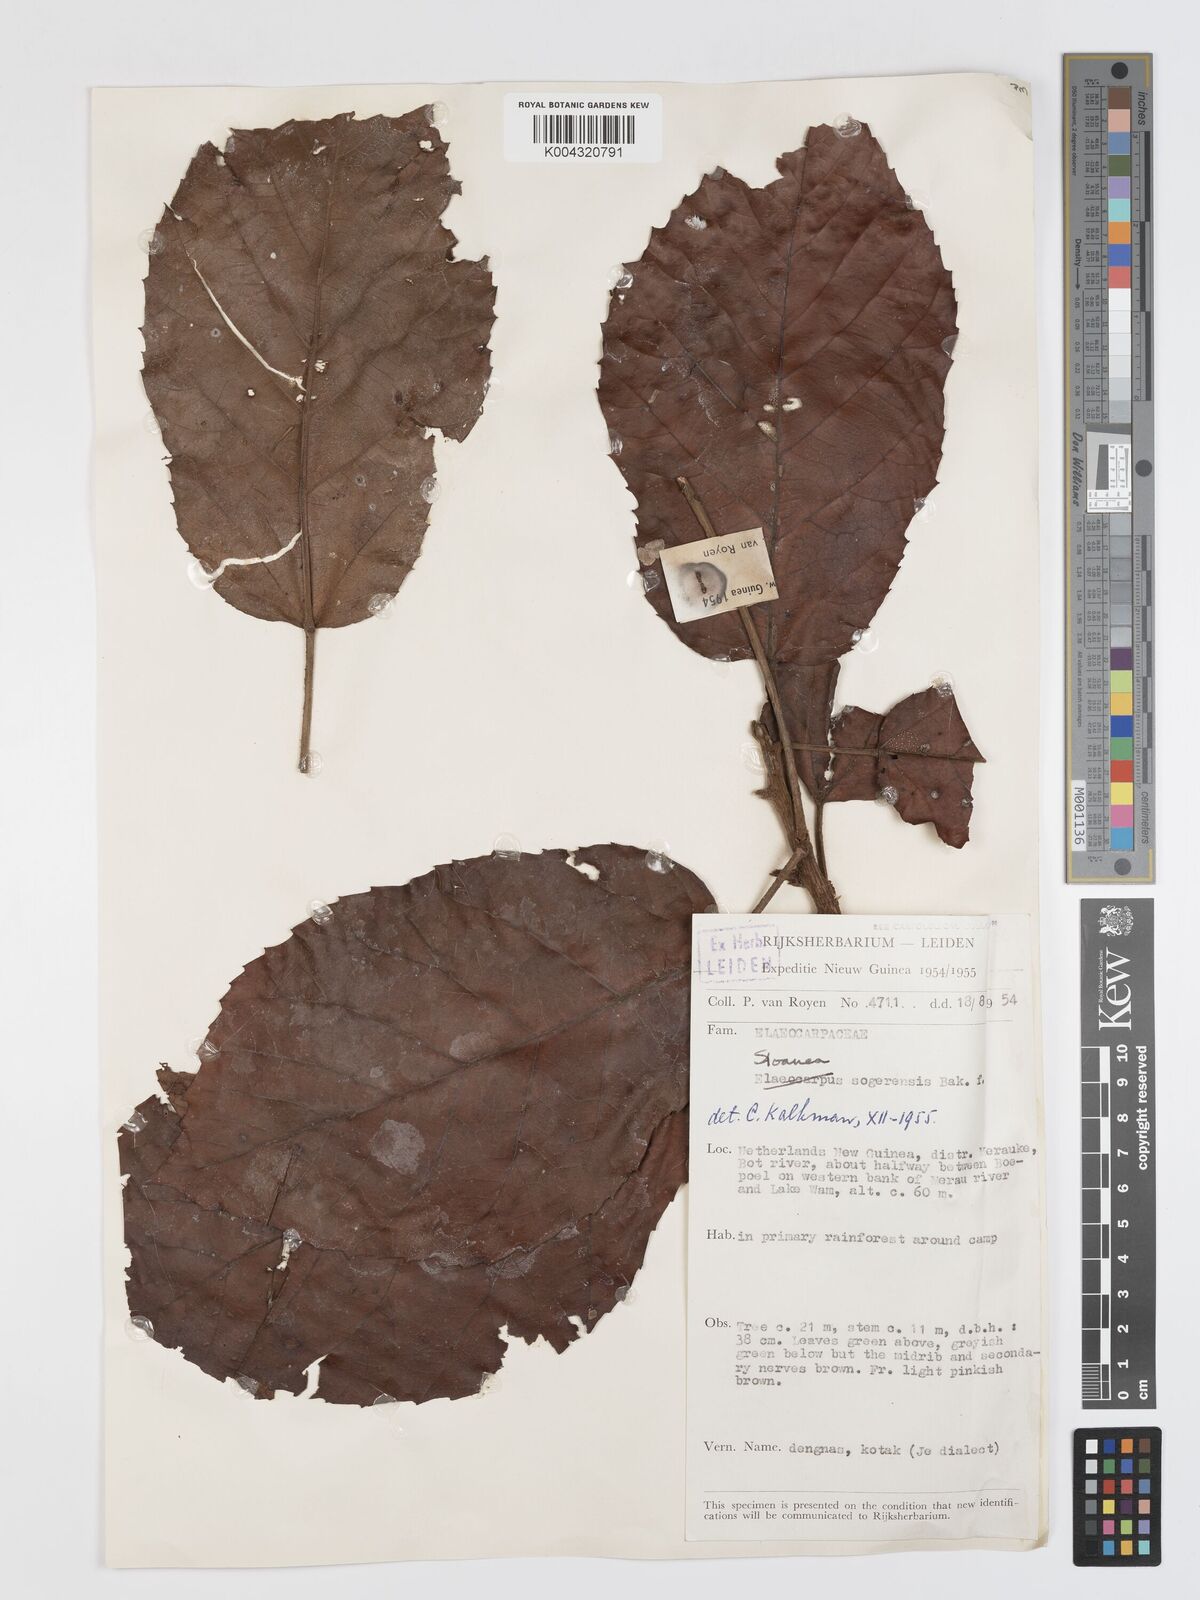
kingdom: Plantae
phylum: Tracheophyta
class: Magnoliopsida
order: Oxalidales
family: Elaeocarpaceae
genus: Sloanea
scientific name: Sloanea sogerensis
